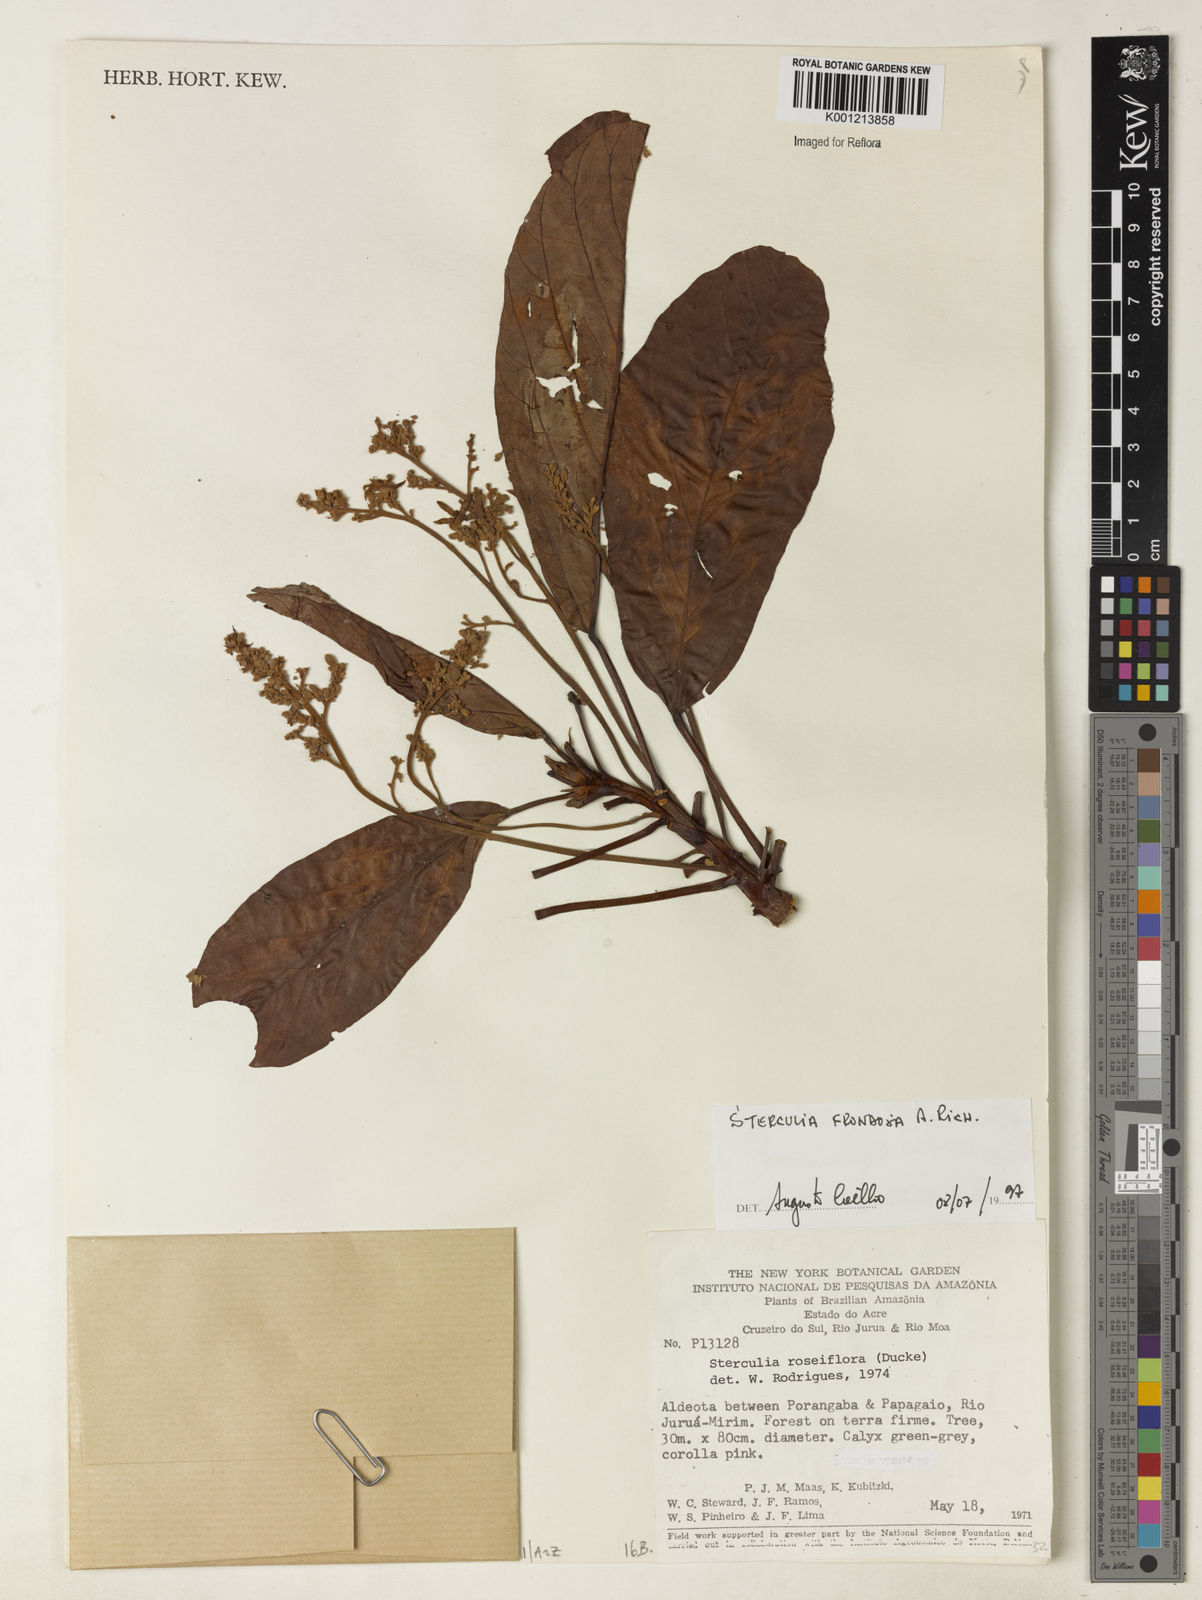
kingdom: Plantae
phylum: Tracheophyta
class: Magnoliopsida
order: Malvales
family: Malvaceae
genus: Sterculia
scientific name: Sterculia frondosa
